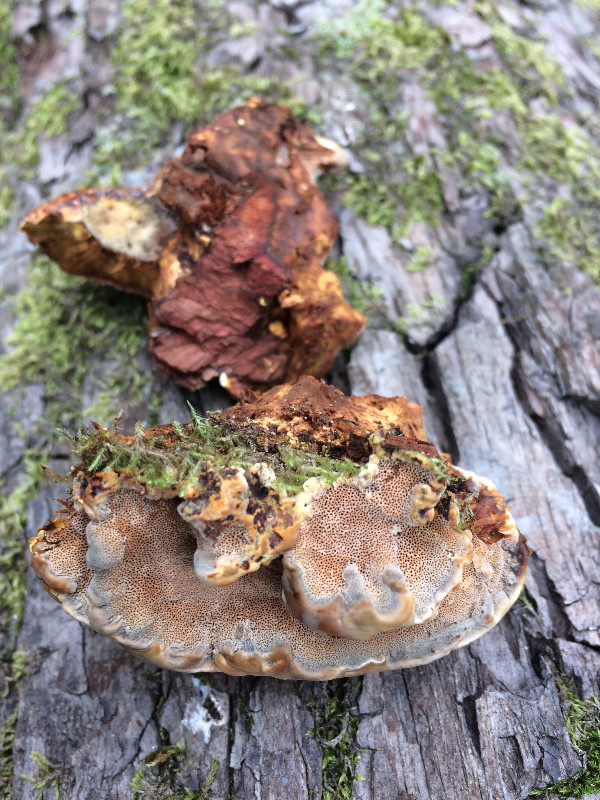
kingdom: Fungi
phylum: Basidiomycota
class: Agaricomycetes
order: Hymenochaetales
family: Hymenochaetaceae
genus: Phellinus
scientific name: Phellinus pomaceus
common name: blomme-ildporesvamp
